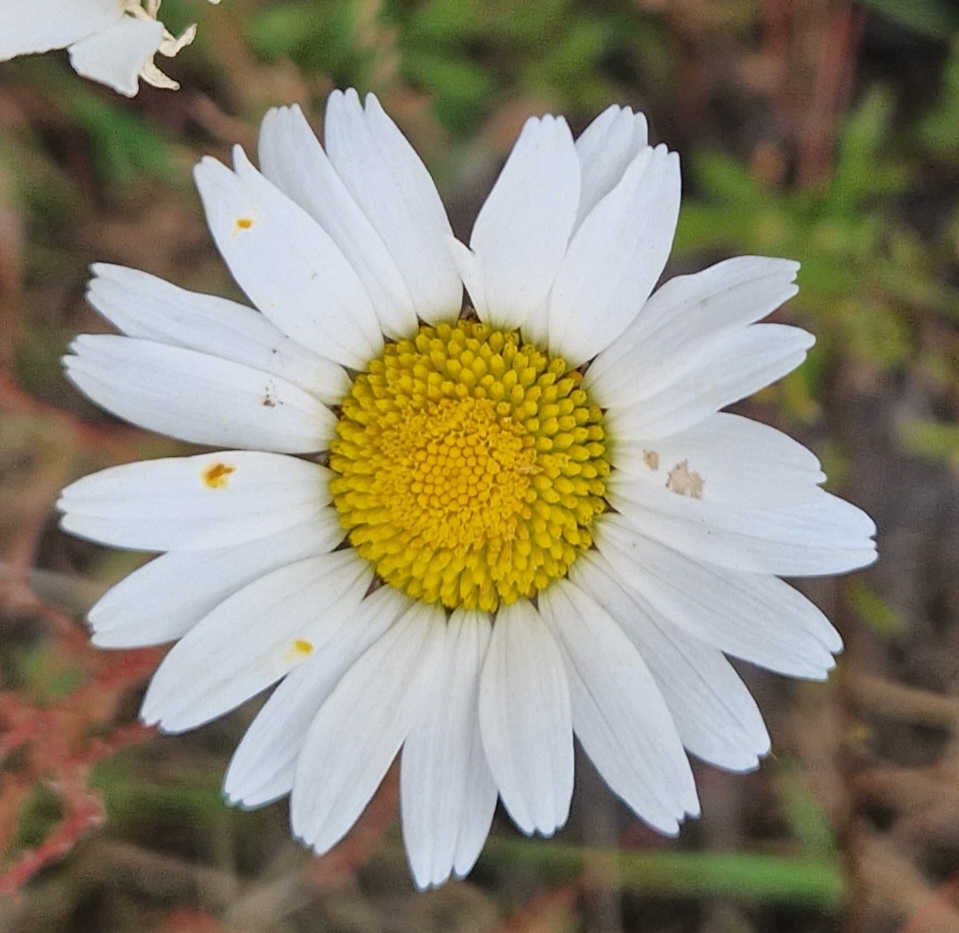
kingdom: Plantae
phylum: Tracheophyta
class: Magnoliopsida
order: Asterales
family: Asteraceae
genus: Leucanthemum
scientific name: Leucanthemum vulgare
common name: Hvid okseøje
